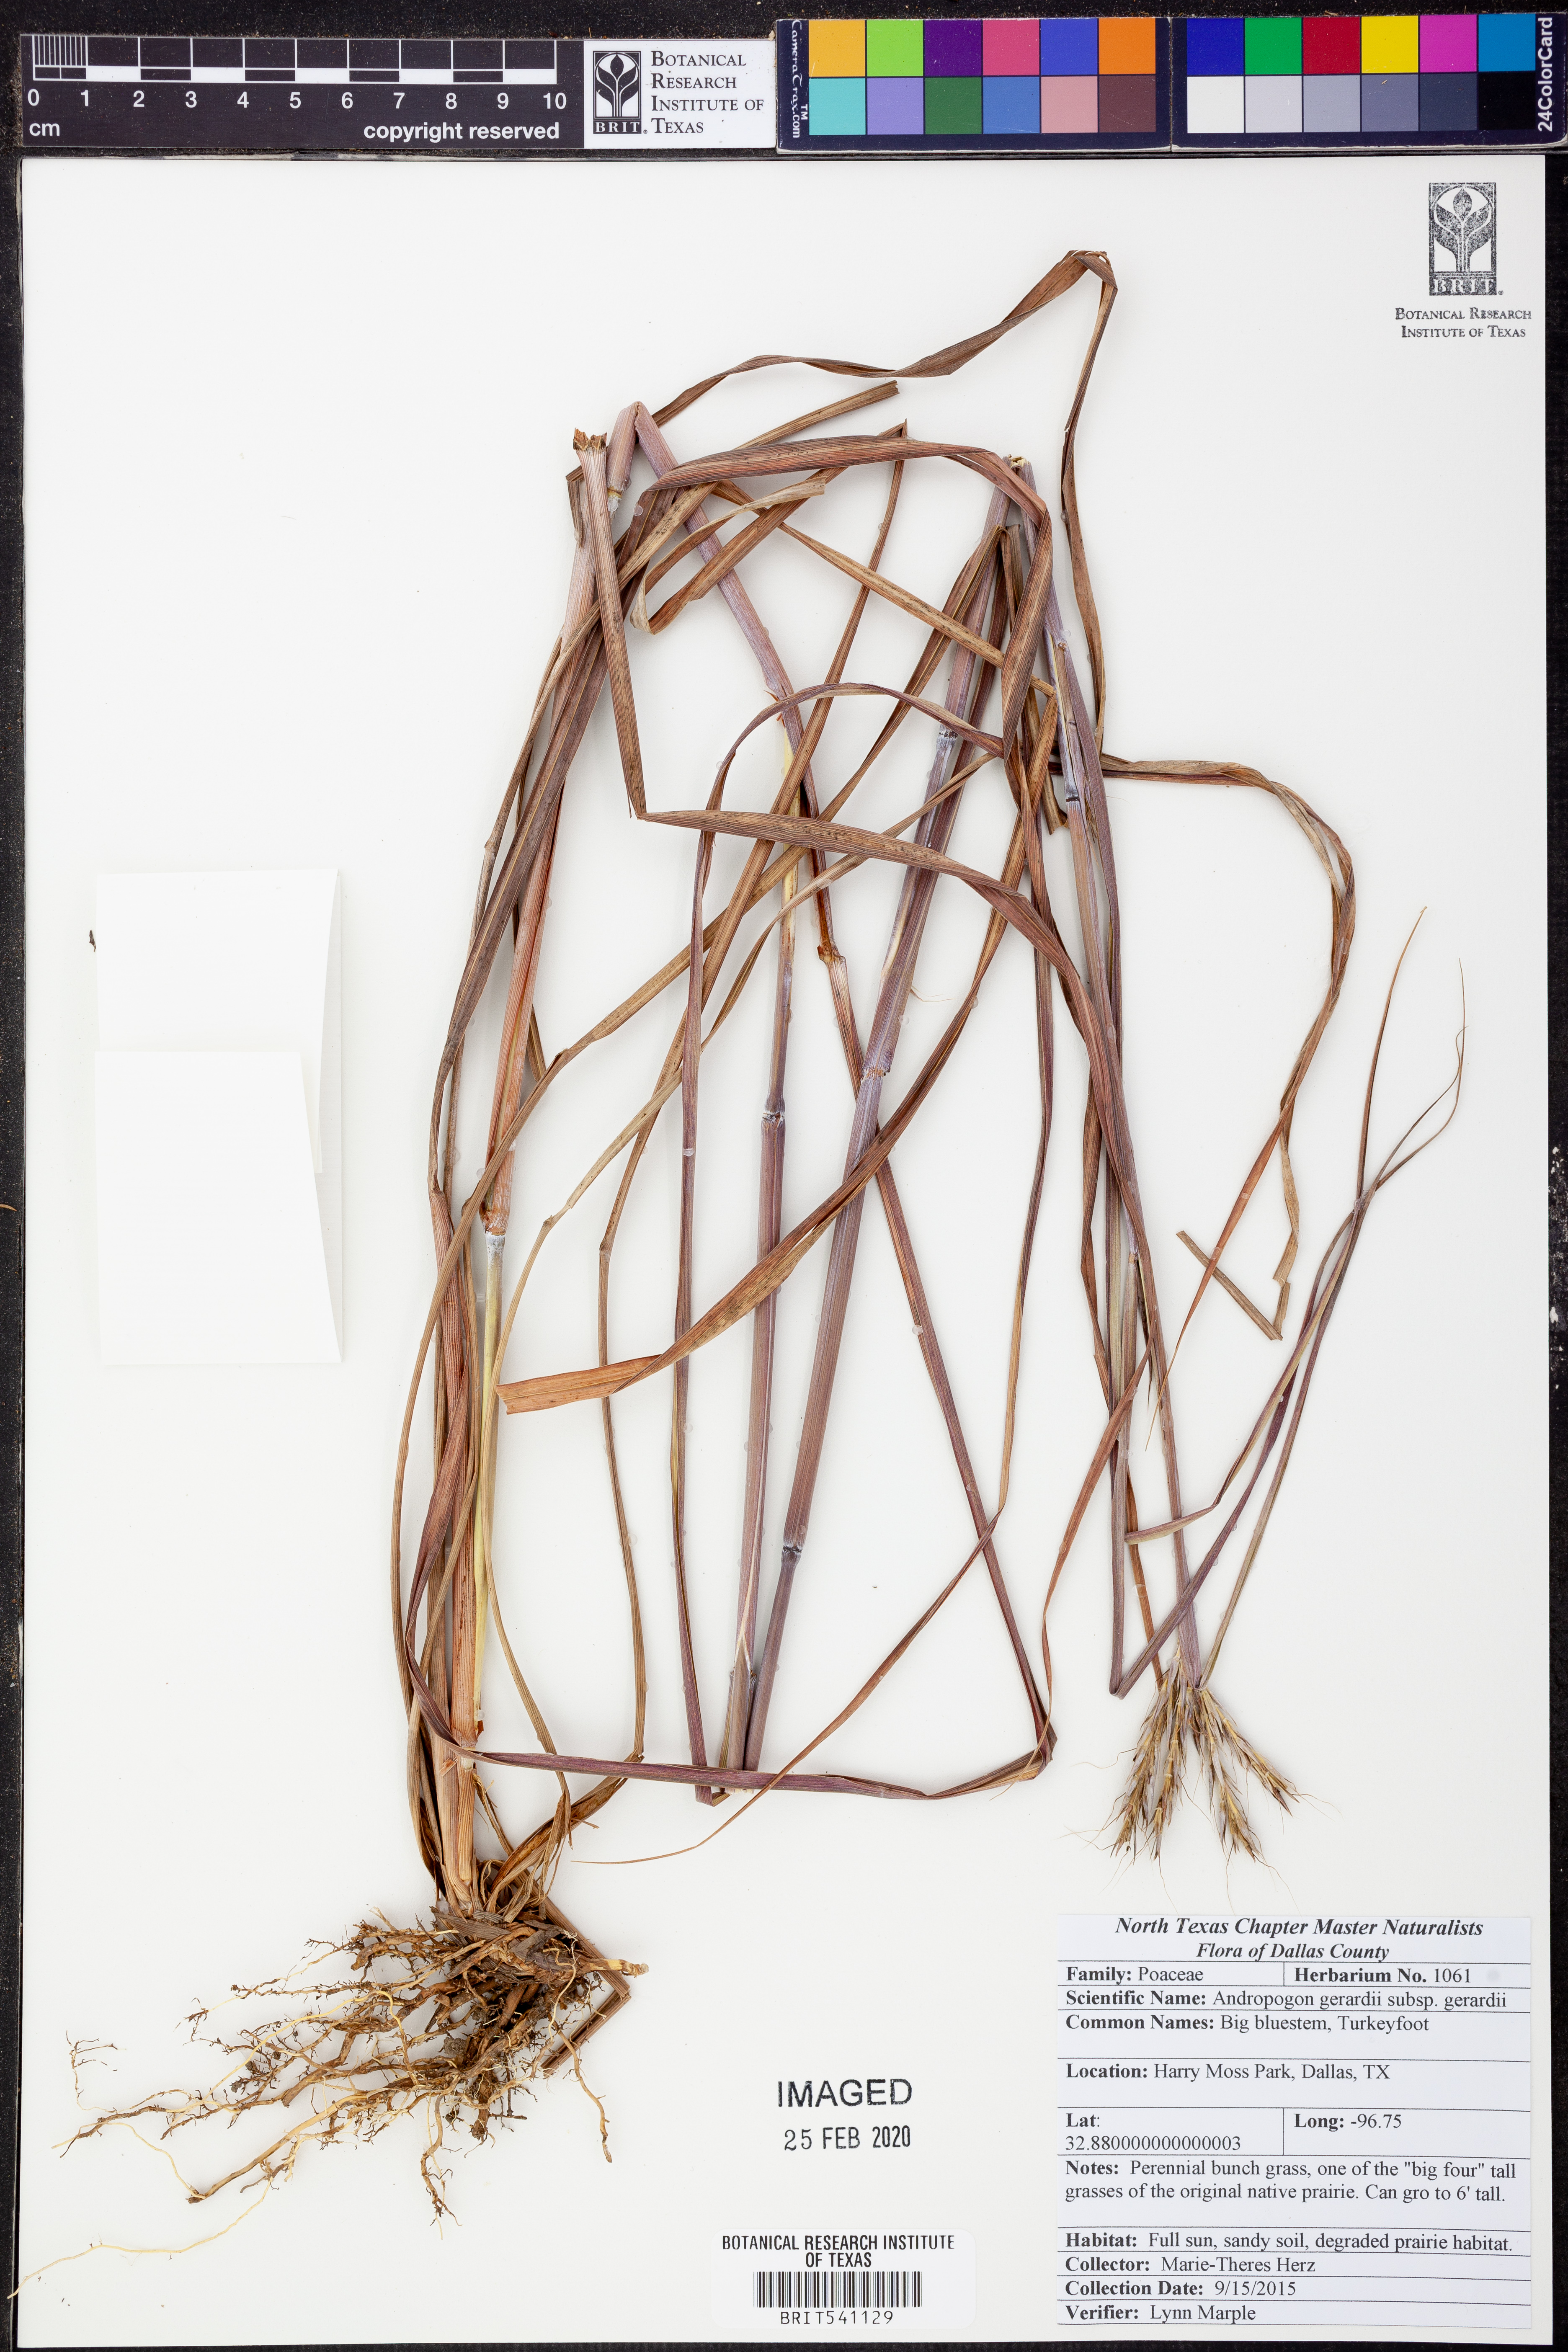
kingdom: Plantae
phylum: Tracheophyta
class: Liliopsida
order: Poales
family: Poaceae
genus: Andropogon
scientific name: Andropogon gerardi
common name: Big bluestem
